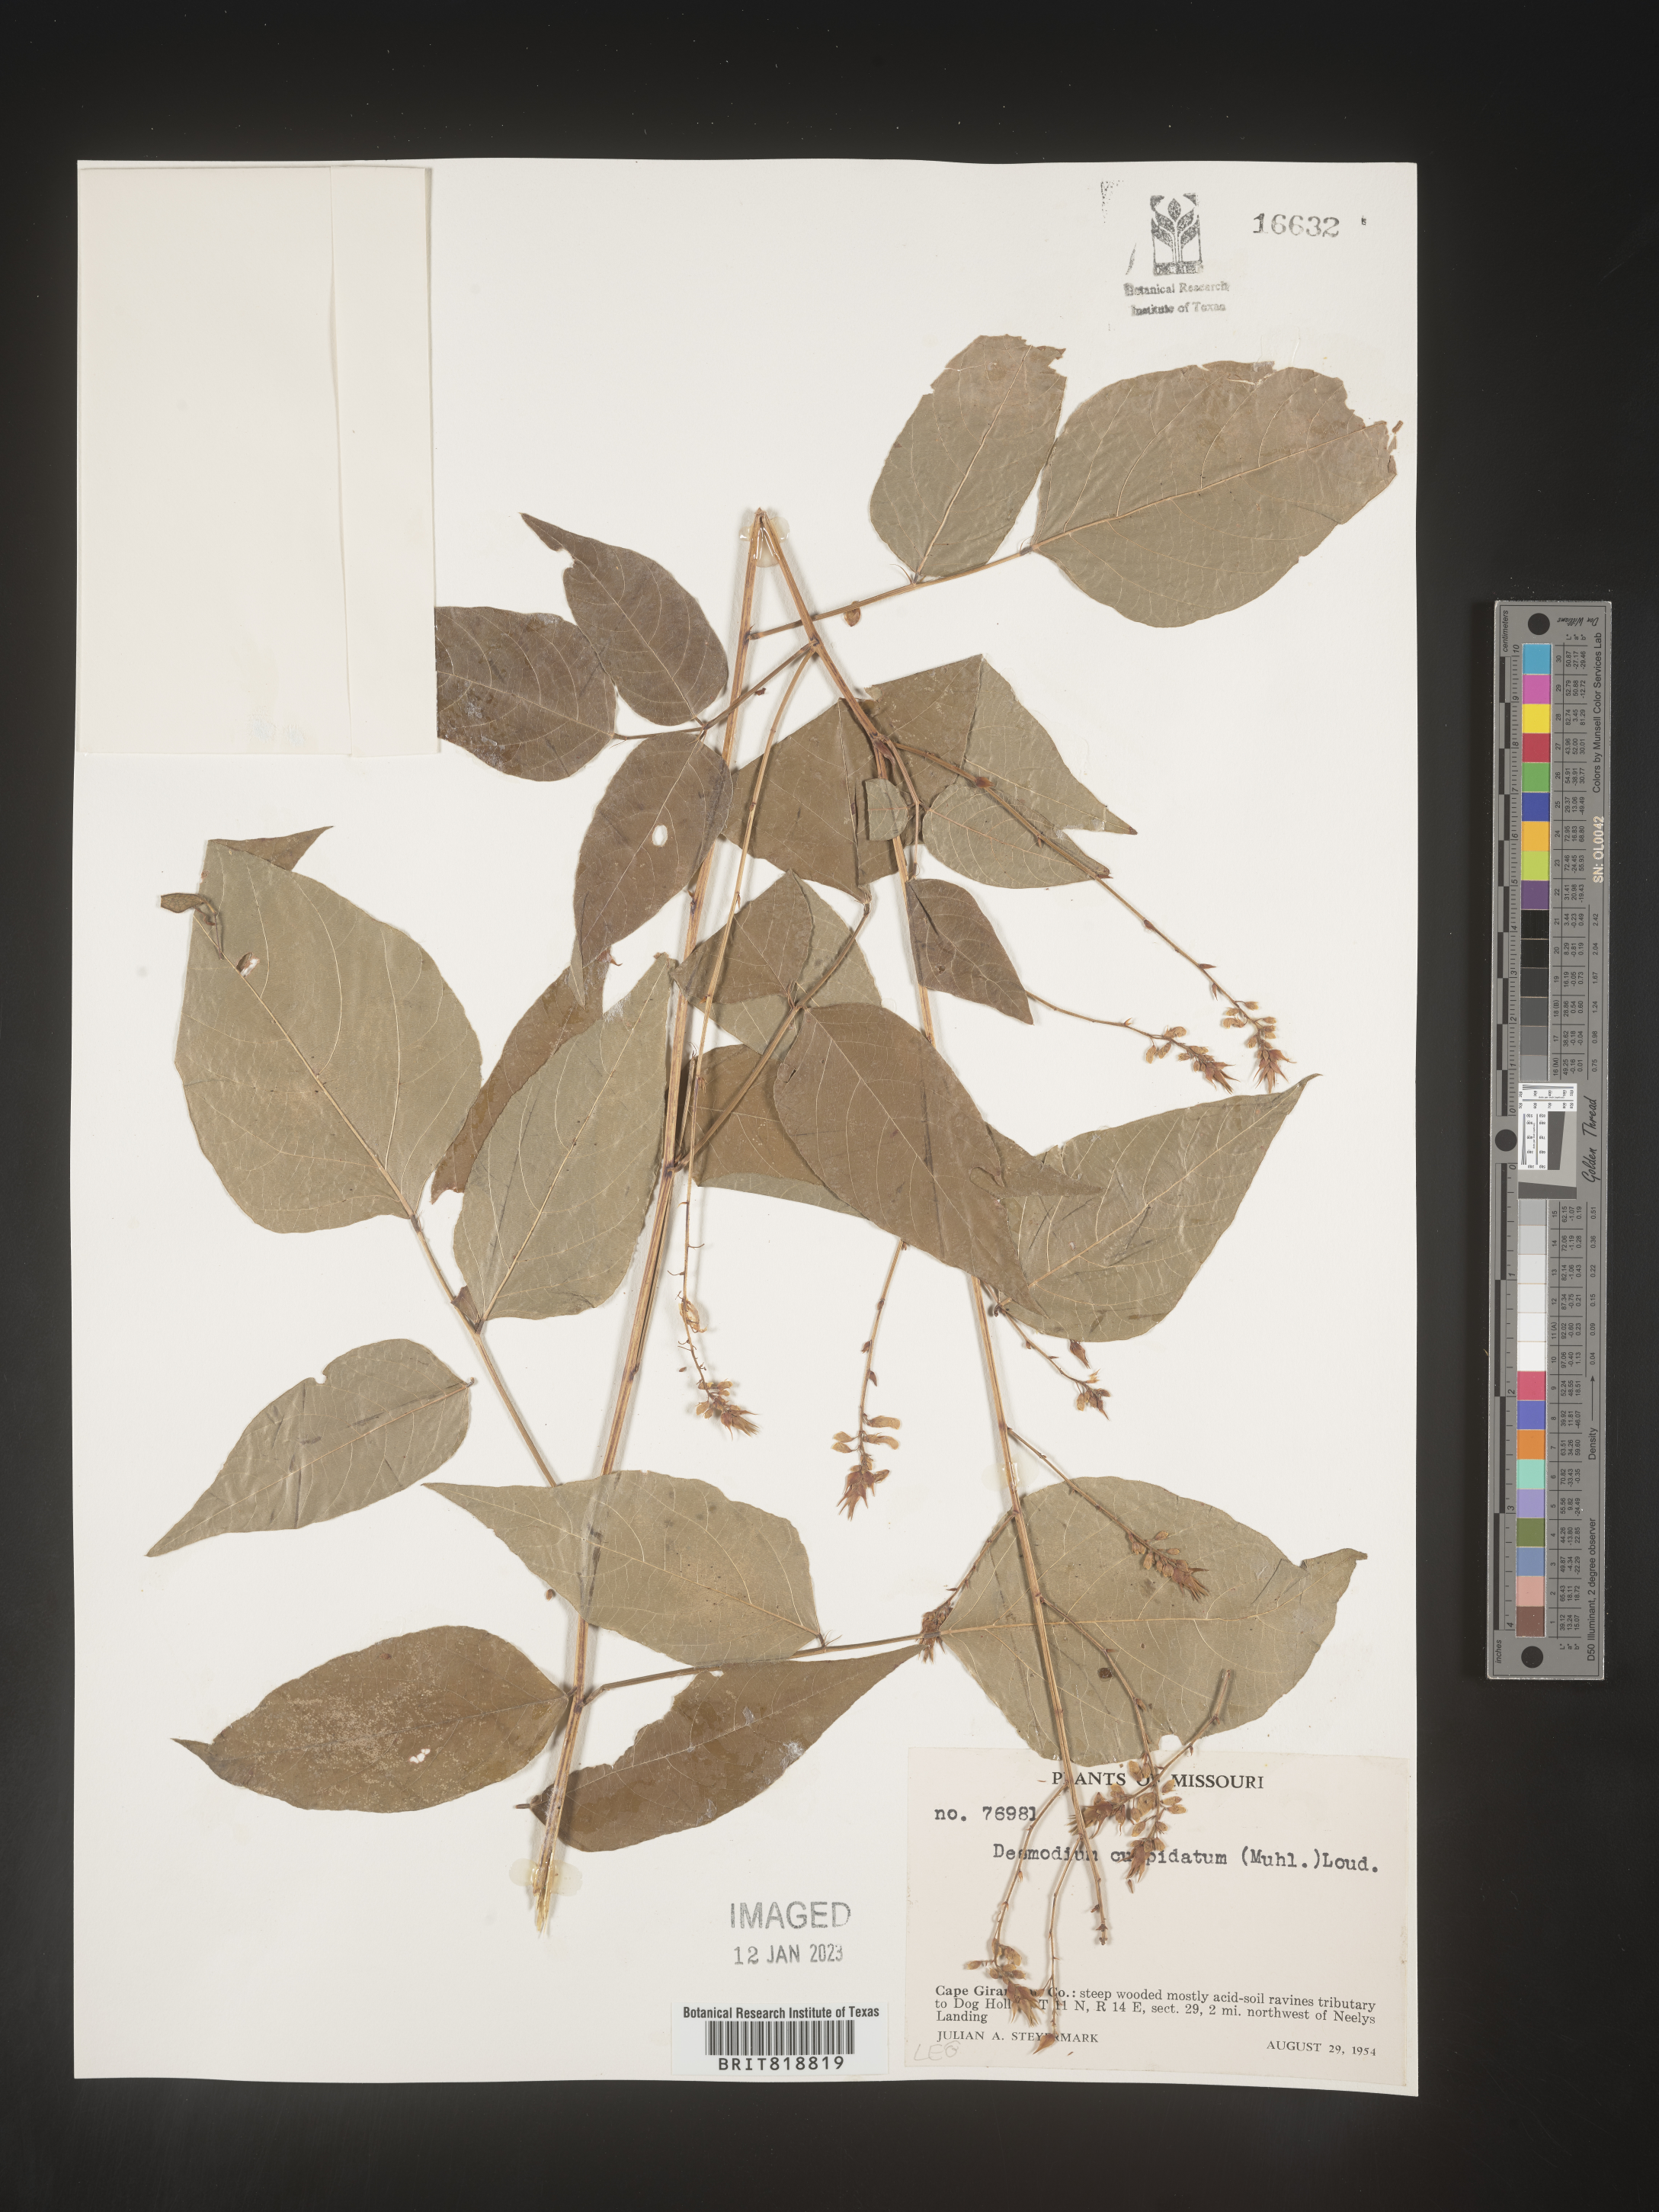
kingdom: Plantae
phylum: Tracheophyta
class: Magnoliopsida
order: Fabales
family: Fabaceae
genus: Desmodium
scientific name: Desmodium cuspidatum
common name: Big tick trefoil
